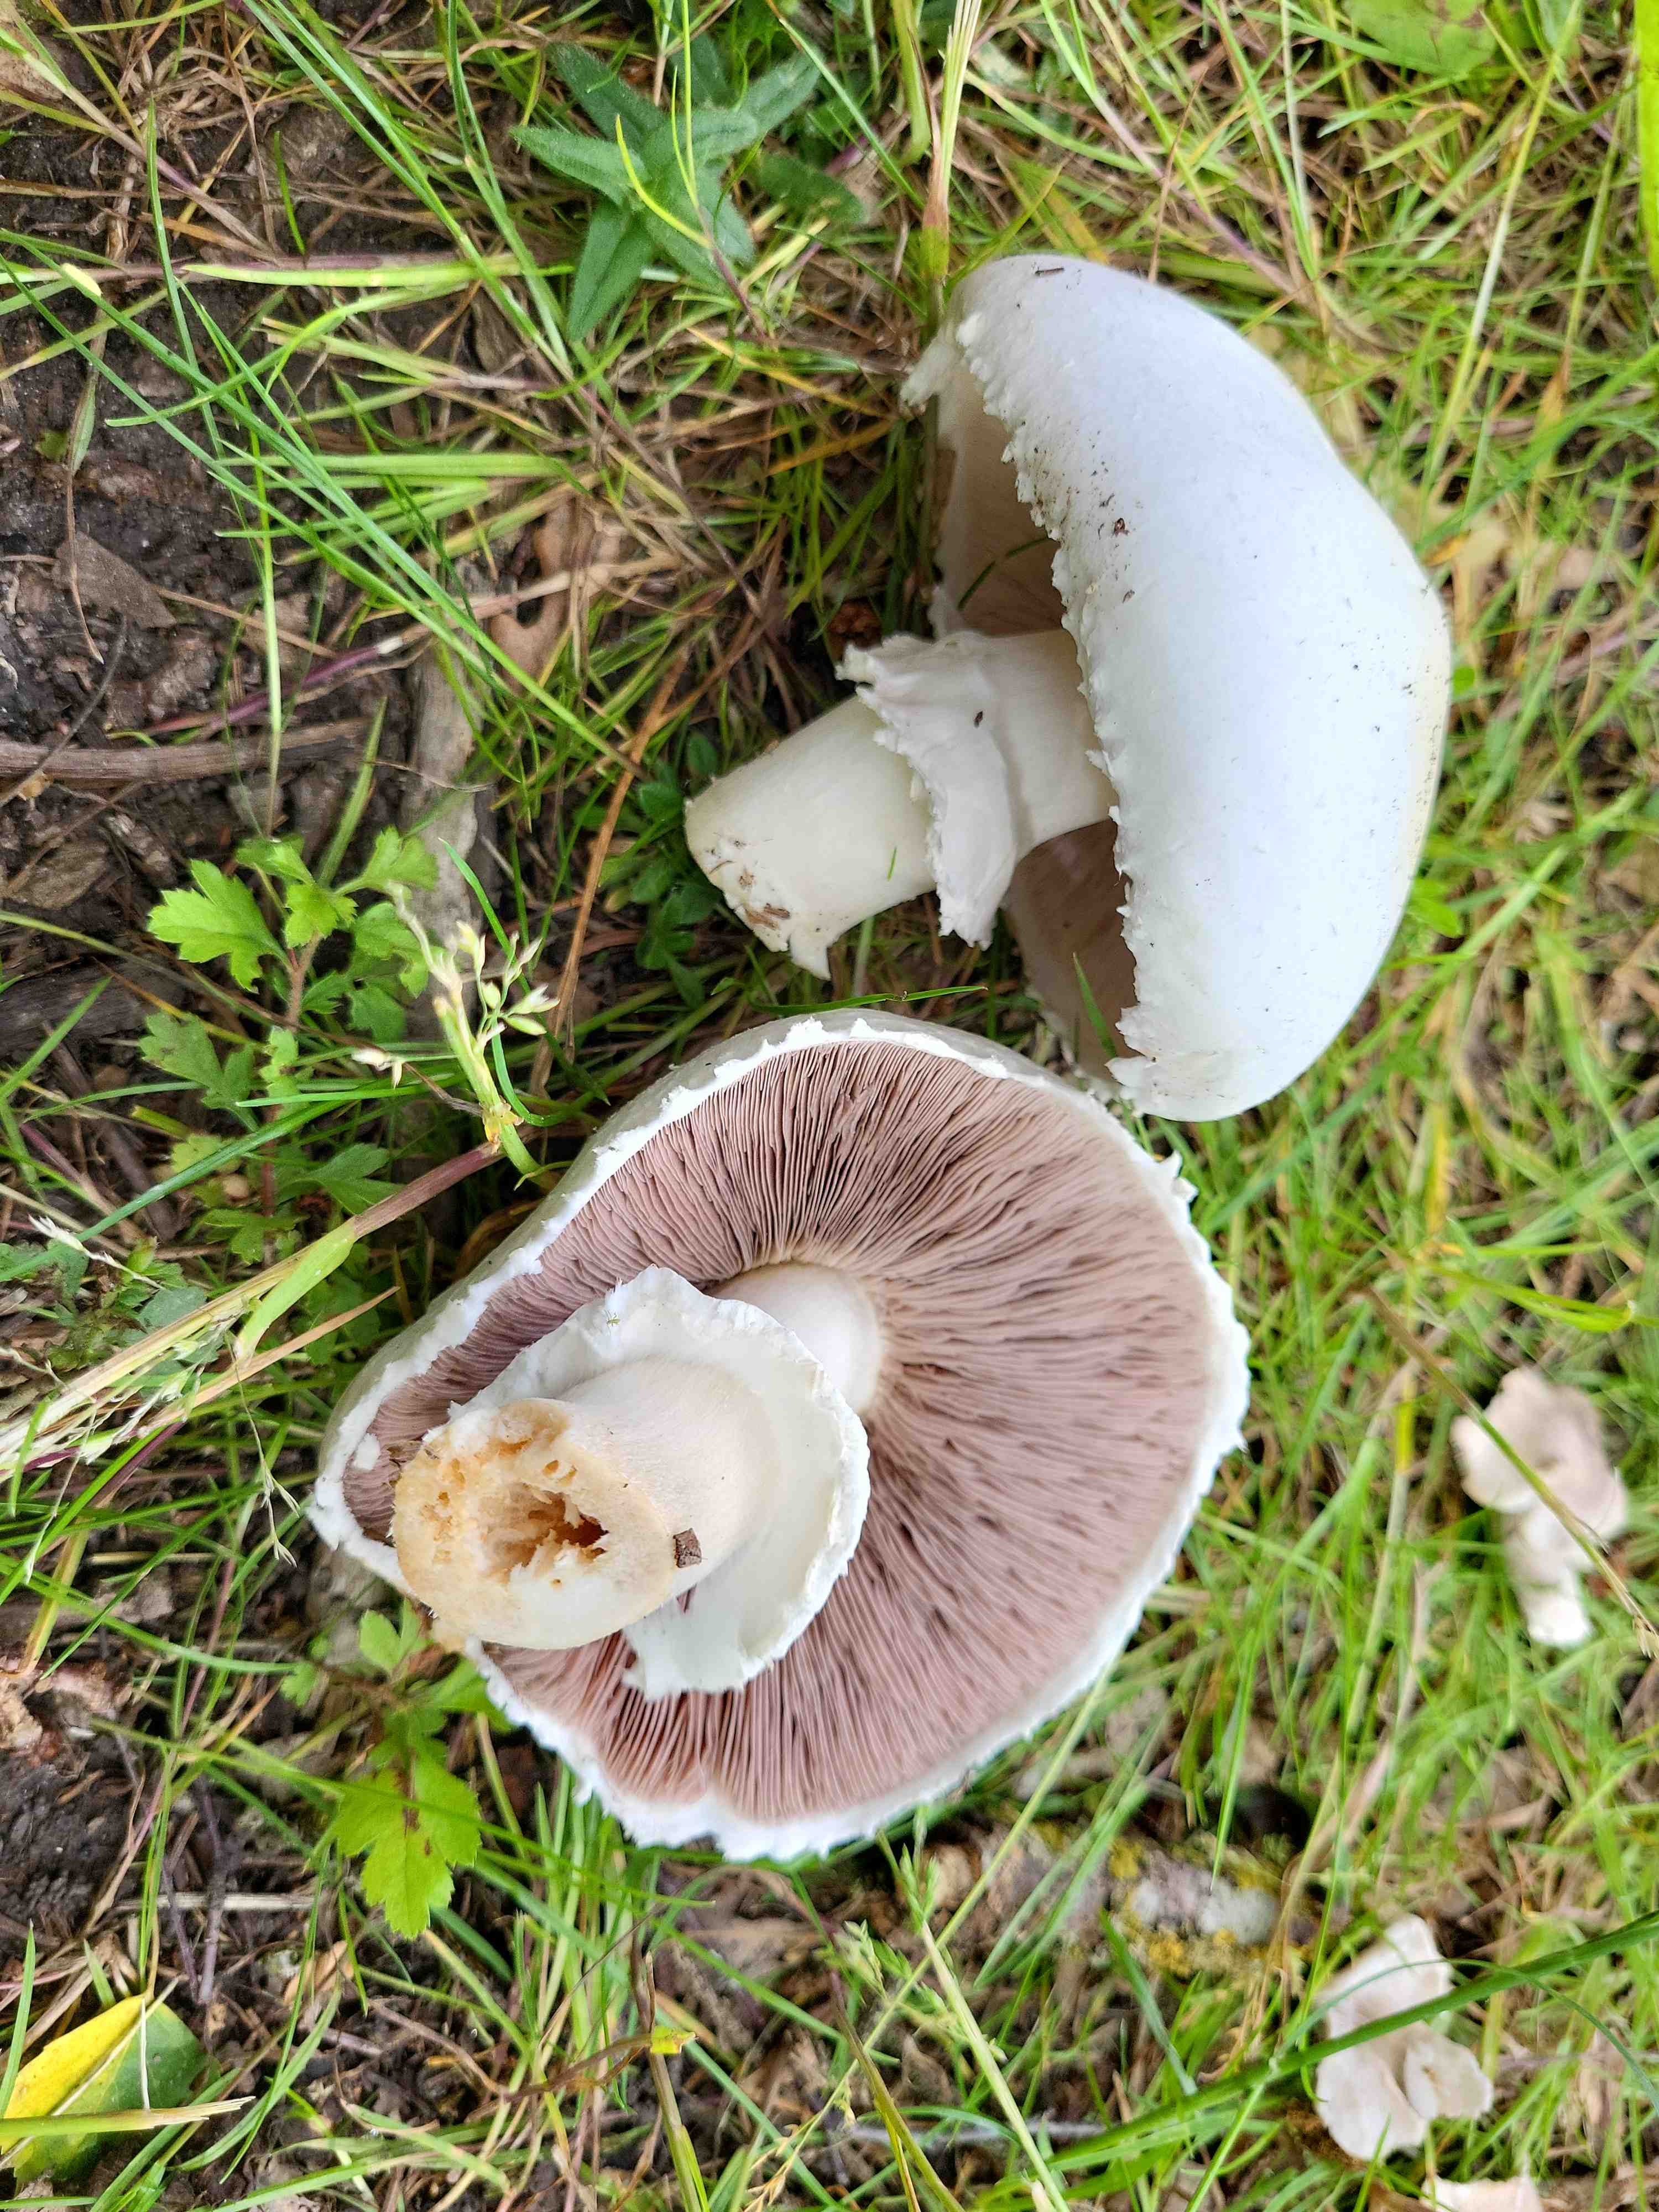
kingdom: Fungi
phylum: Basidiomycota
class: Agaricomycetes
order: Agaricales
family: Agaricaceae
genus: Agaricus
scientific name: Agaricus
